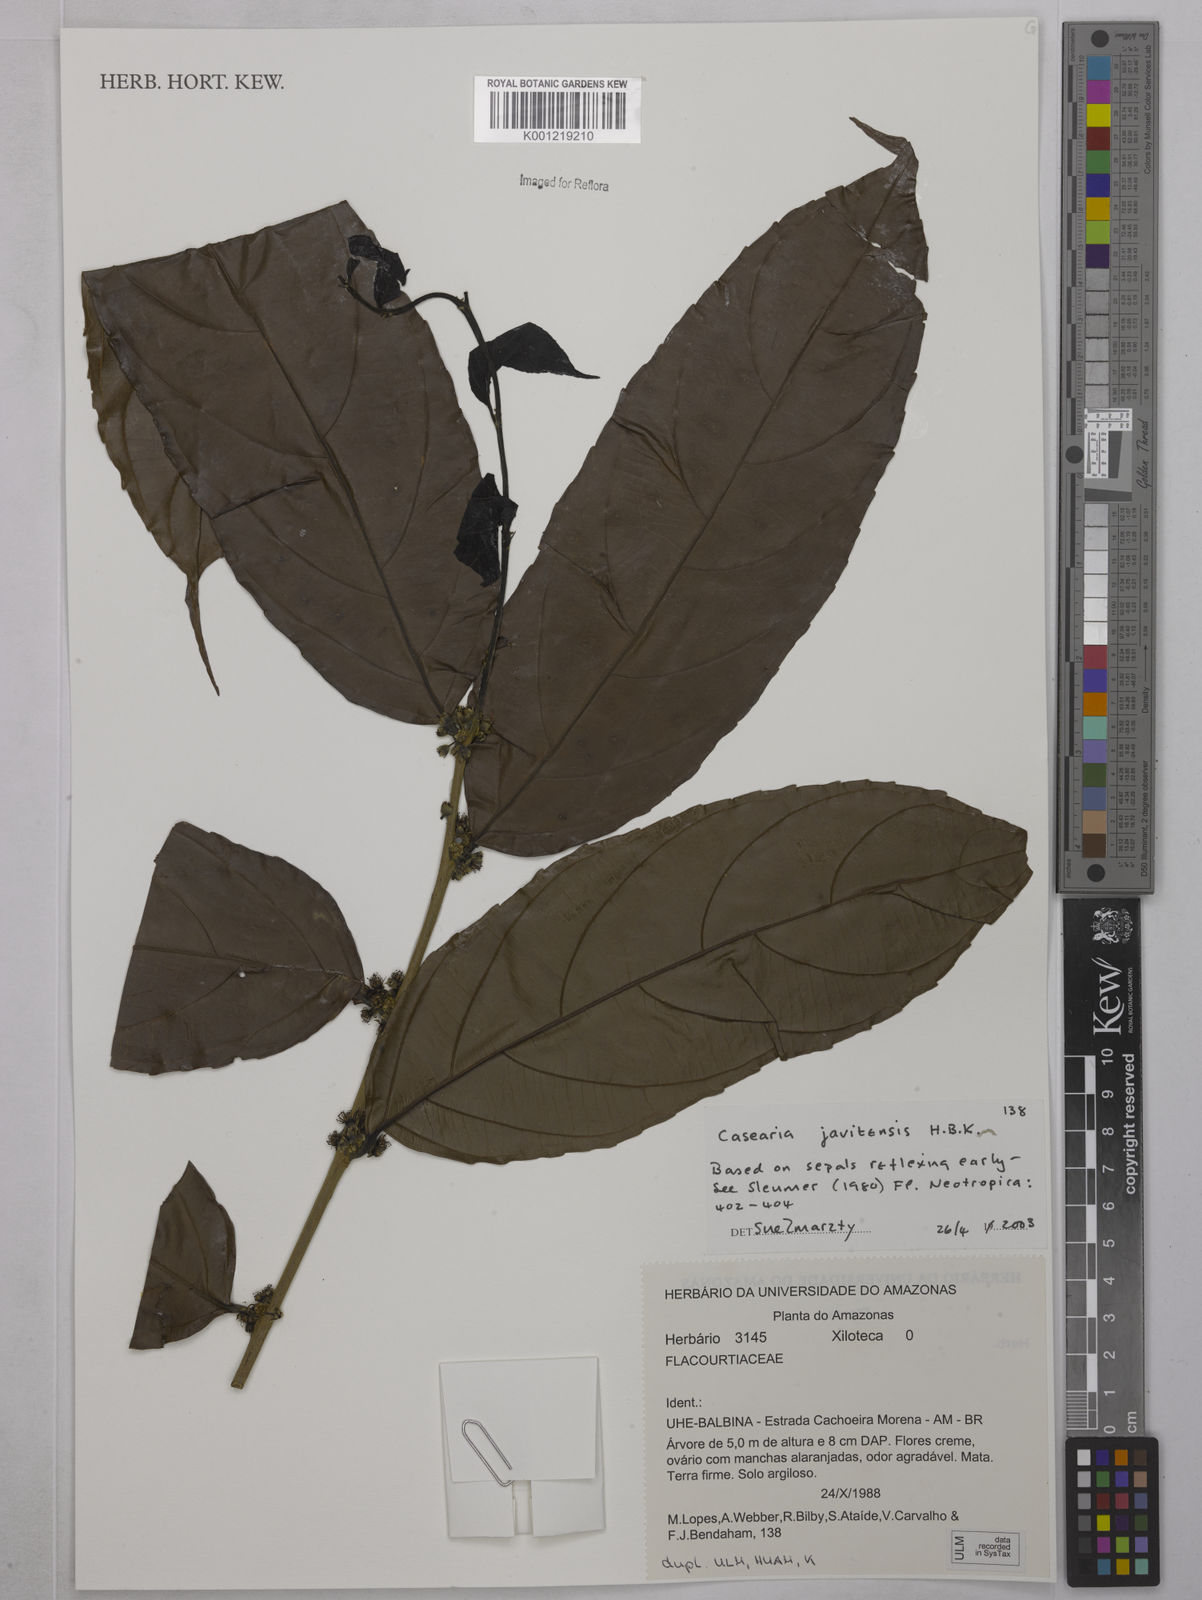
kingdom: Plantae
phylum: Tracheophyta
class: Magnoliopsida
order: Malpighiales
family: Salicaceae
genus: Piparea
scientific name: Piparea multiflora
